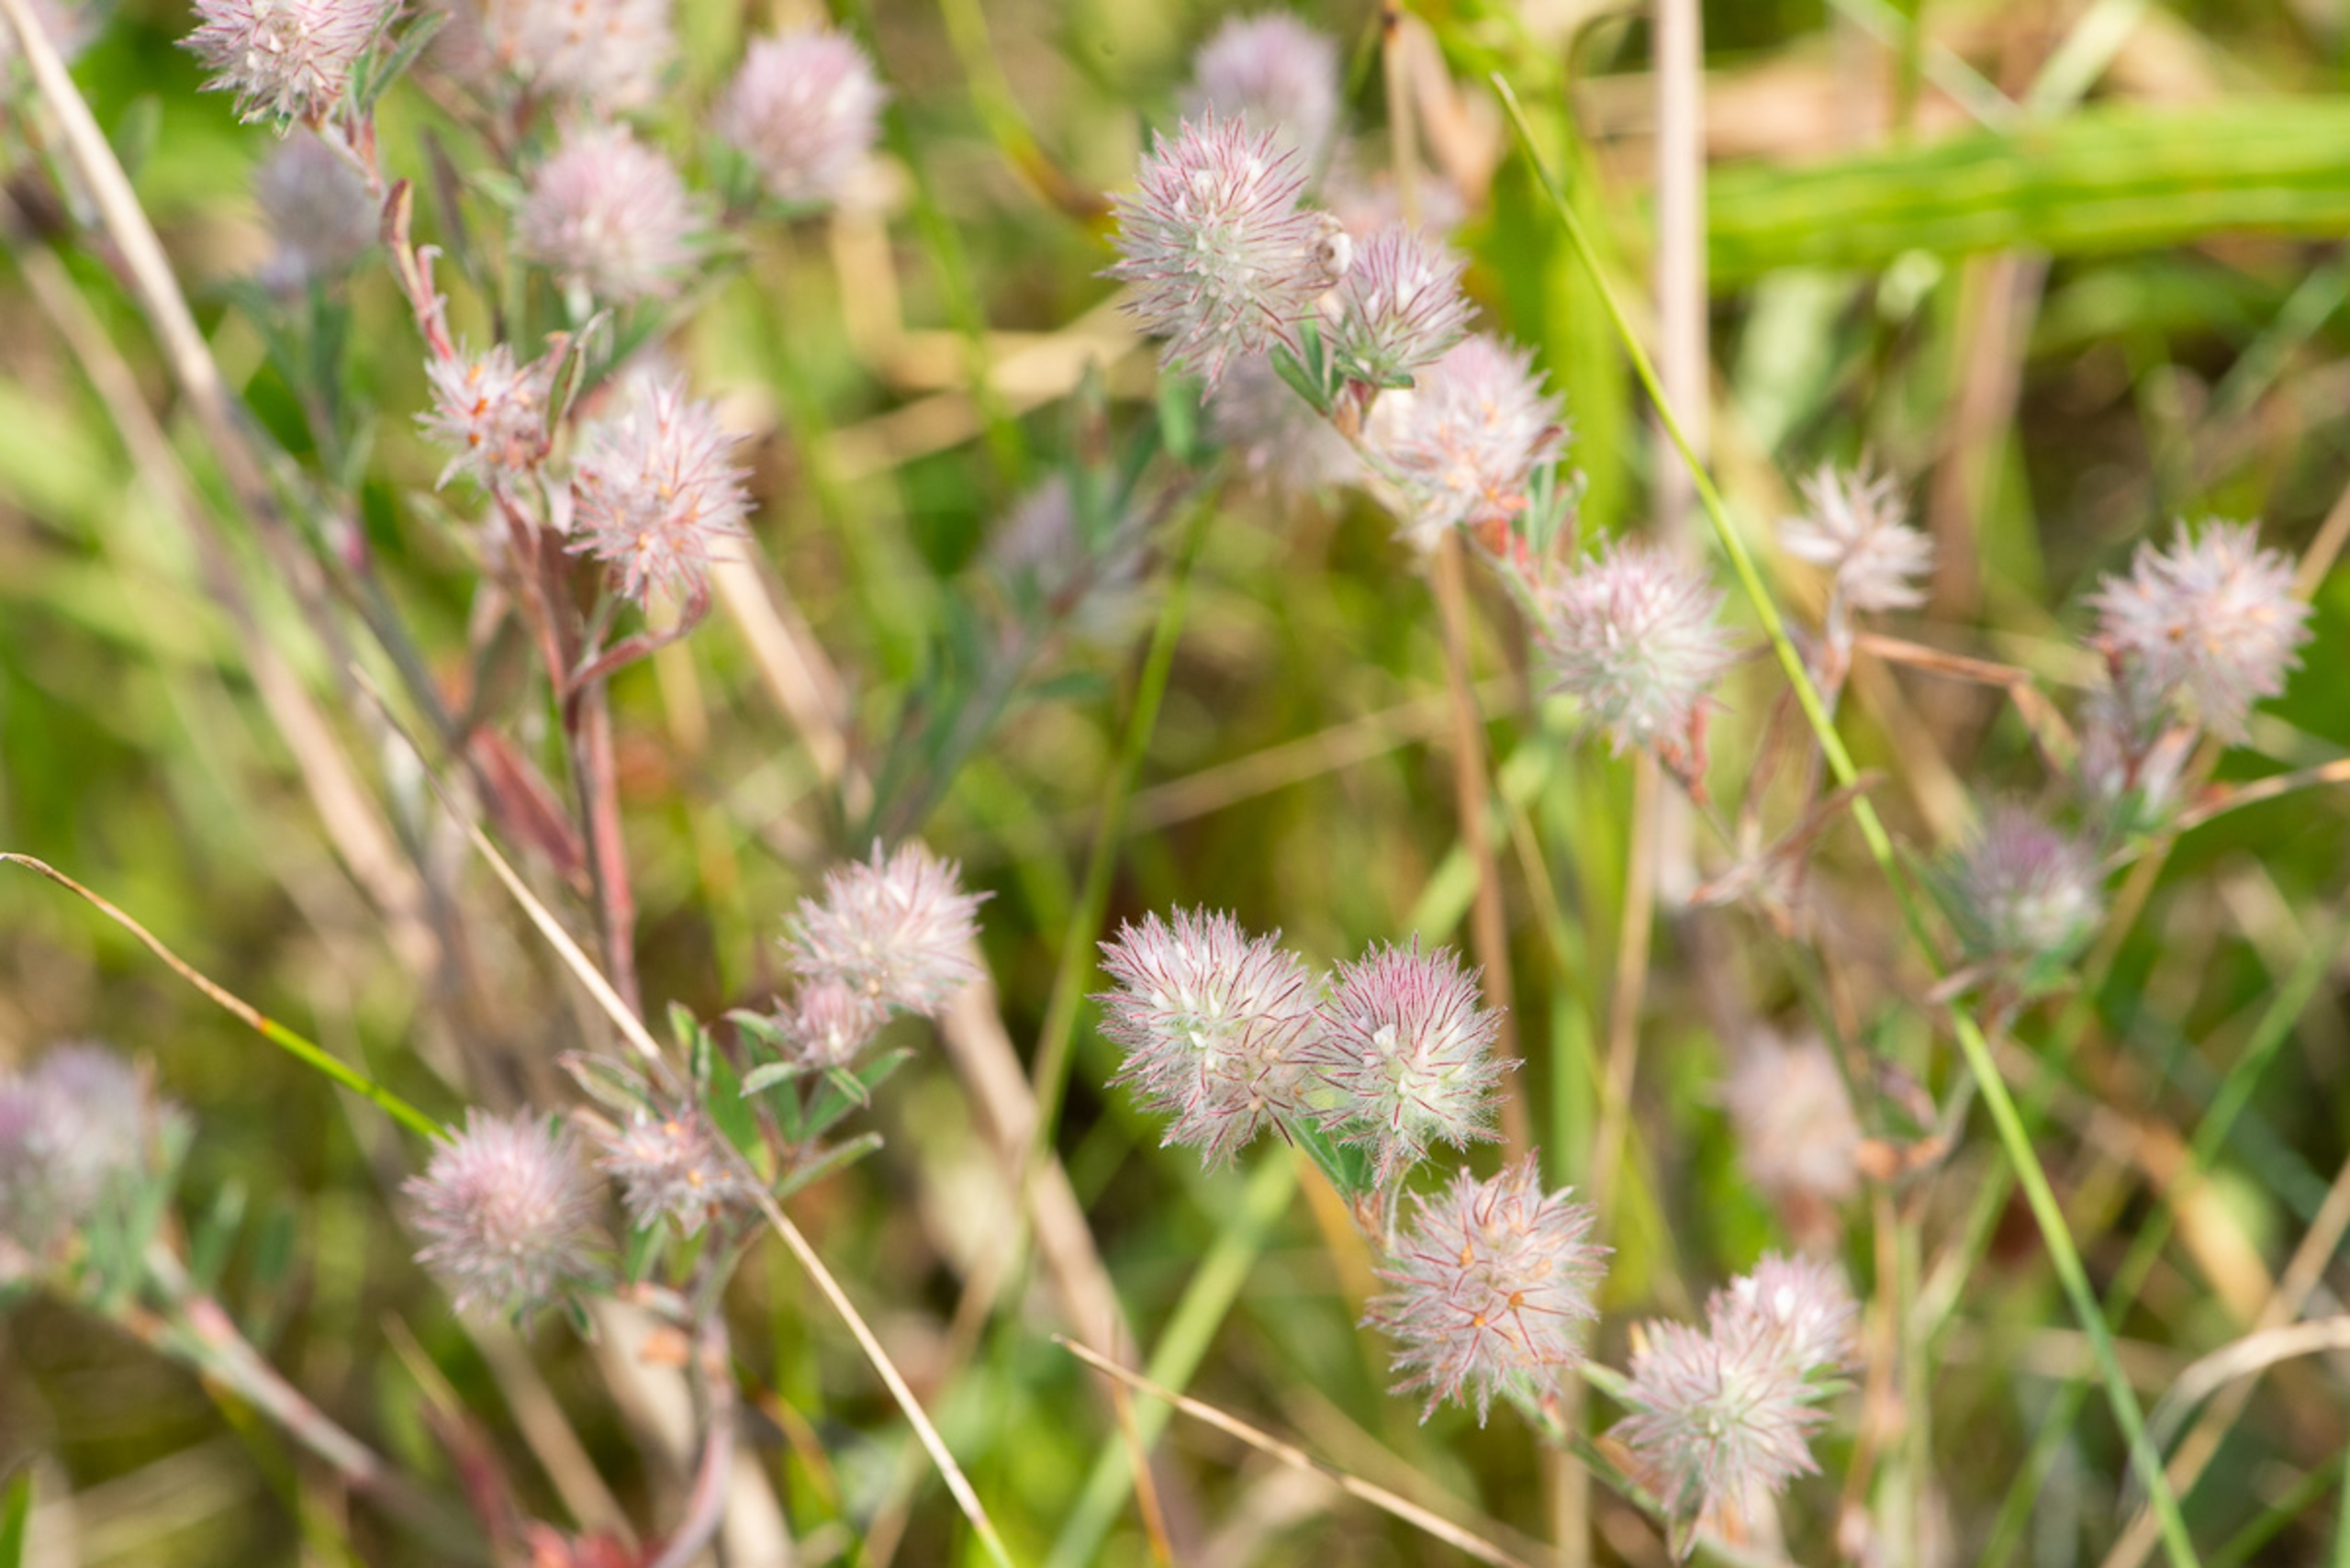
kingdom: Plantae
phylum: Tracheophyta
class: Magnoliopsida
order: Fabales
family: Fabaceae
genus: Trifolium
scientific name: Trifolium arvense
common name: Hare-kløver
